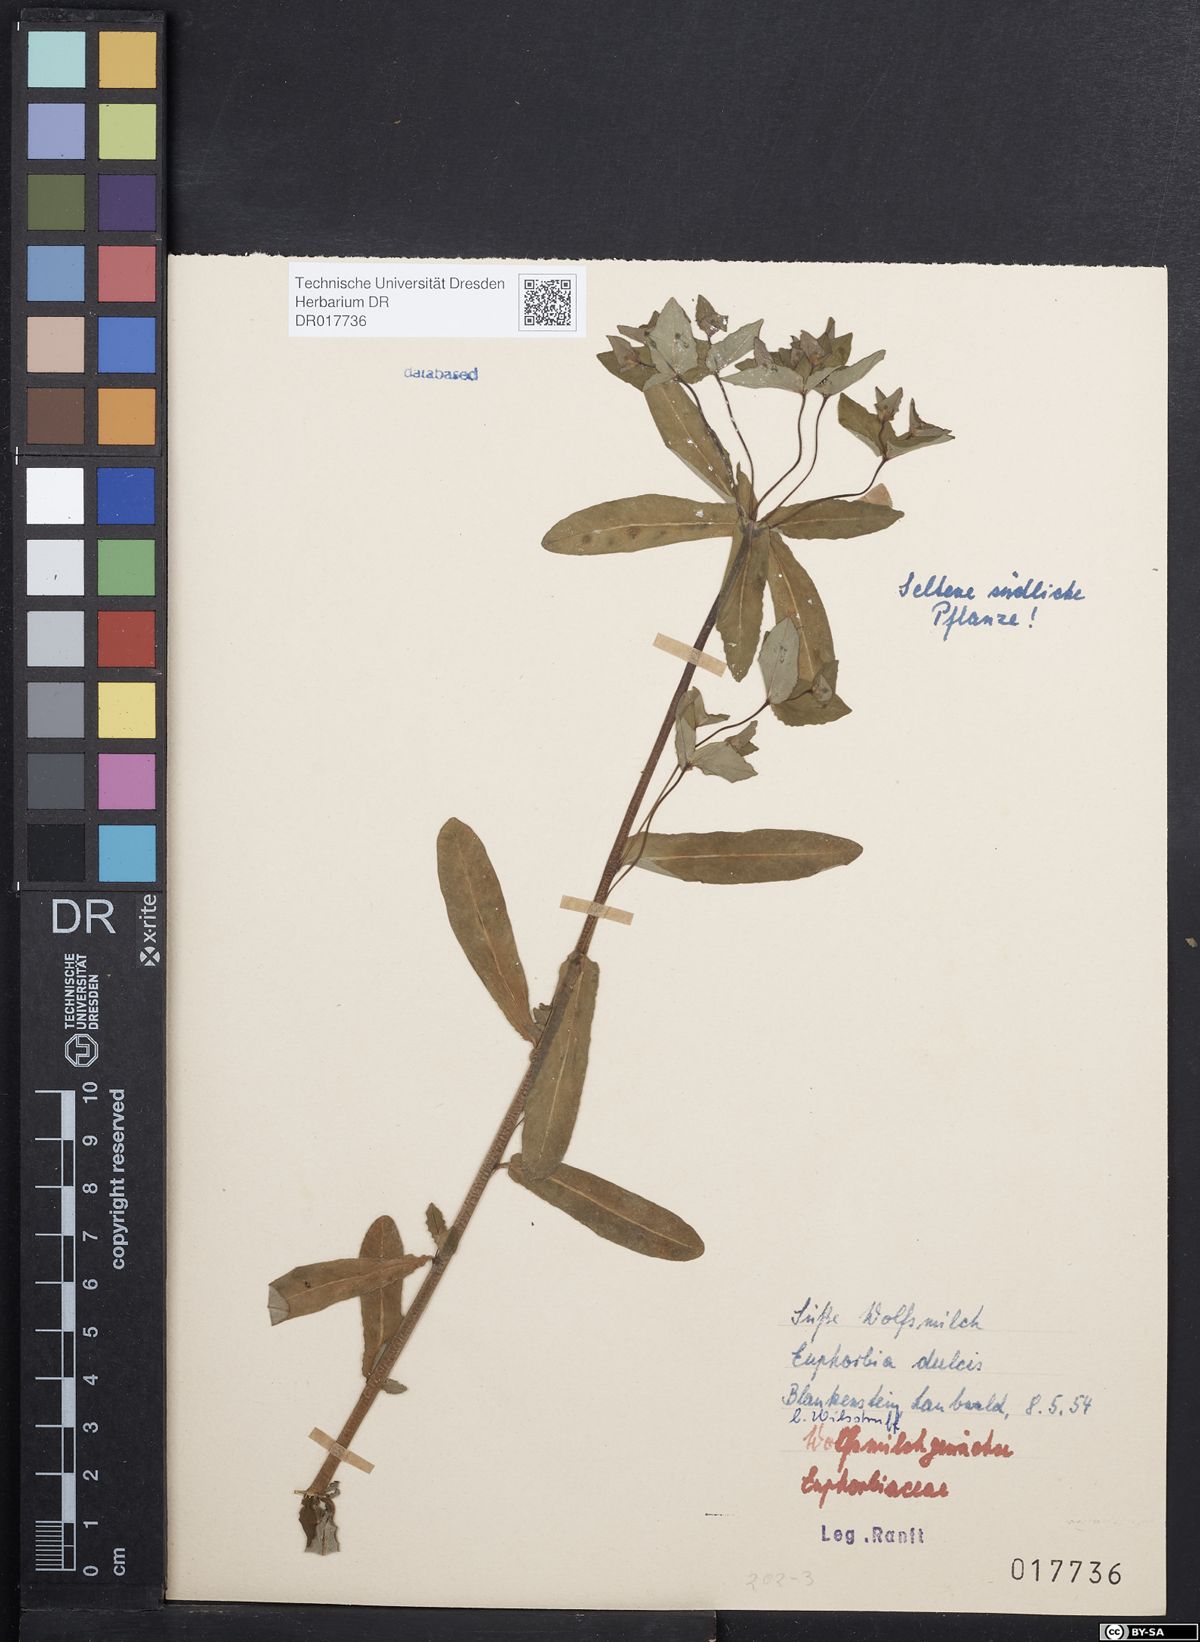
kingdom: Plantae
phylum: Tracheophyta
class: Magnoliopsida
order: Malpighiales
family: Euphorbiaceae
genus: Euphorbia
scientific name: Euphorbia dulcis
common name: Sweet spurge
